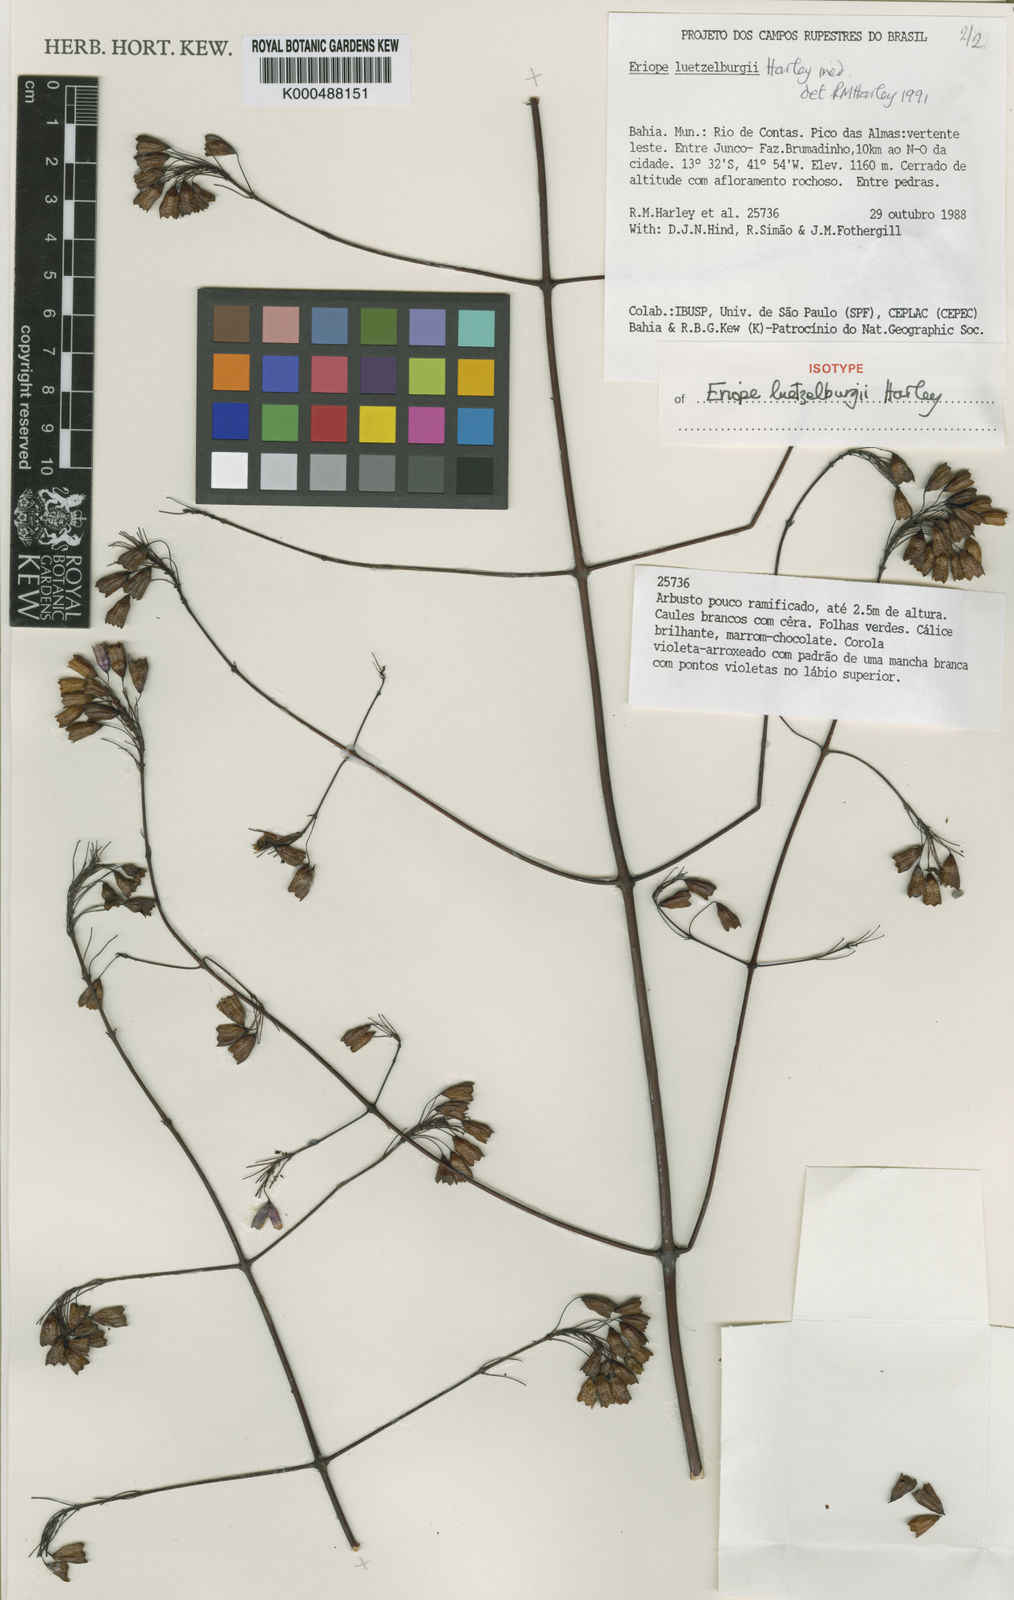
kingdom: Plantae
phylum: Tracheophyta
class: Magnoliopsida
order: Lamiales
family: Lamiaceae
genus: Eriope
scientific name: Eriope luetzelburgii
